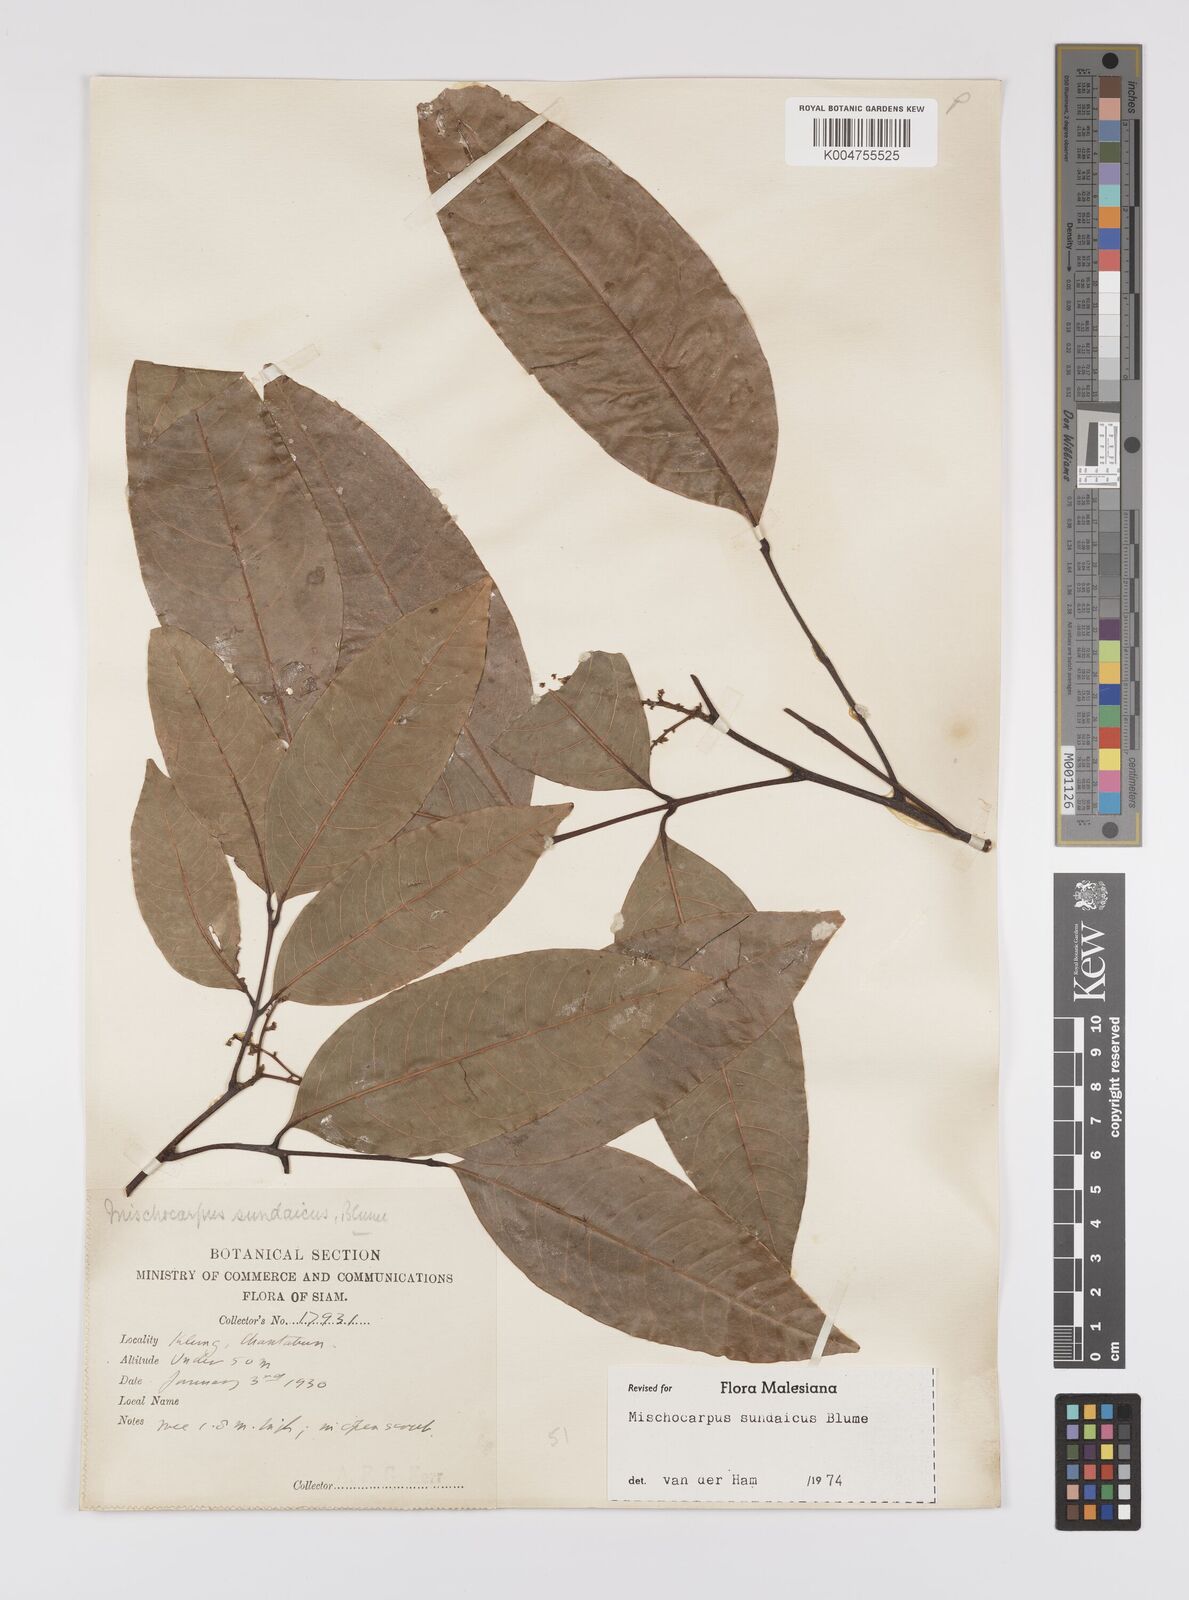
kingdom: Plantae
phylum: Tracheophyta
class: Magnoliopsida
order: Sapindales
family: Sapindaceae
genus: Mischocarpus
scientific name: Mischocarpus sundaicus
